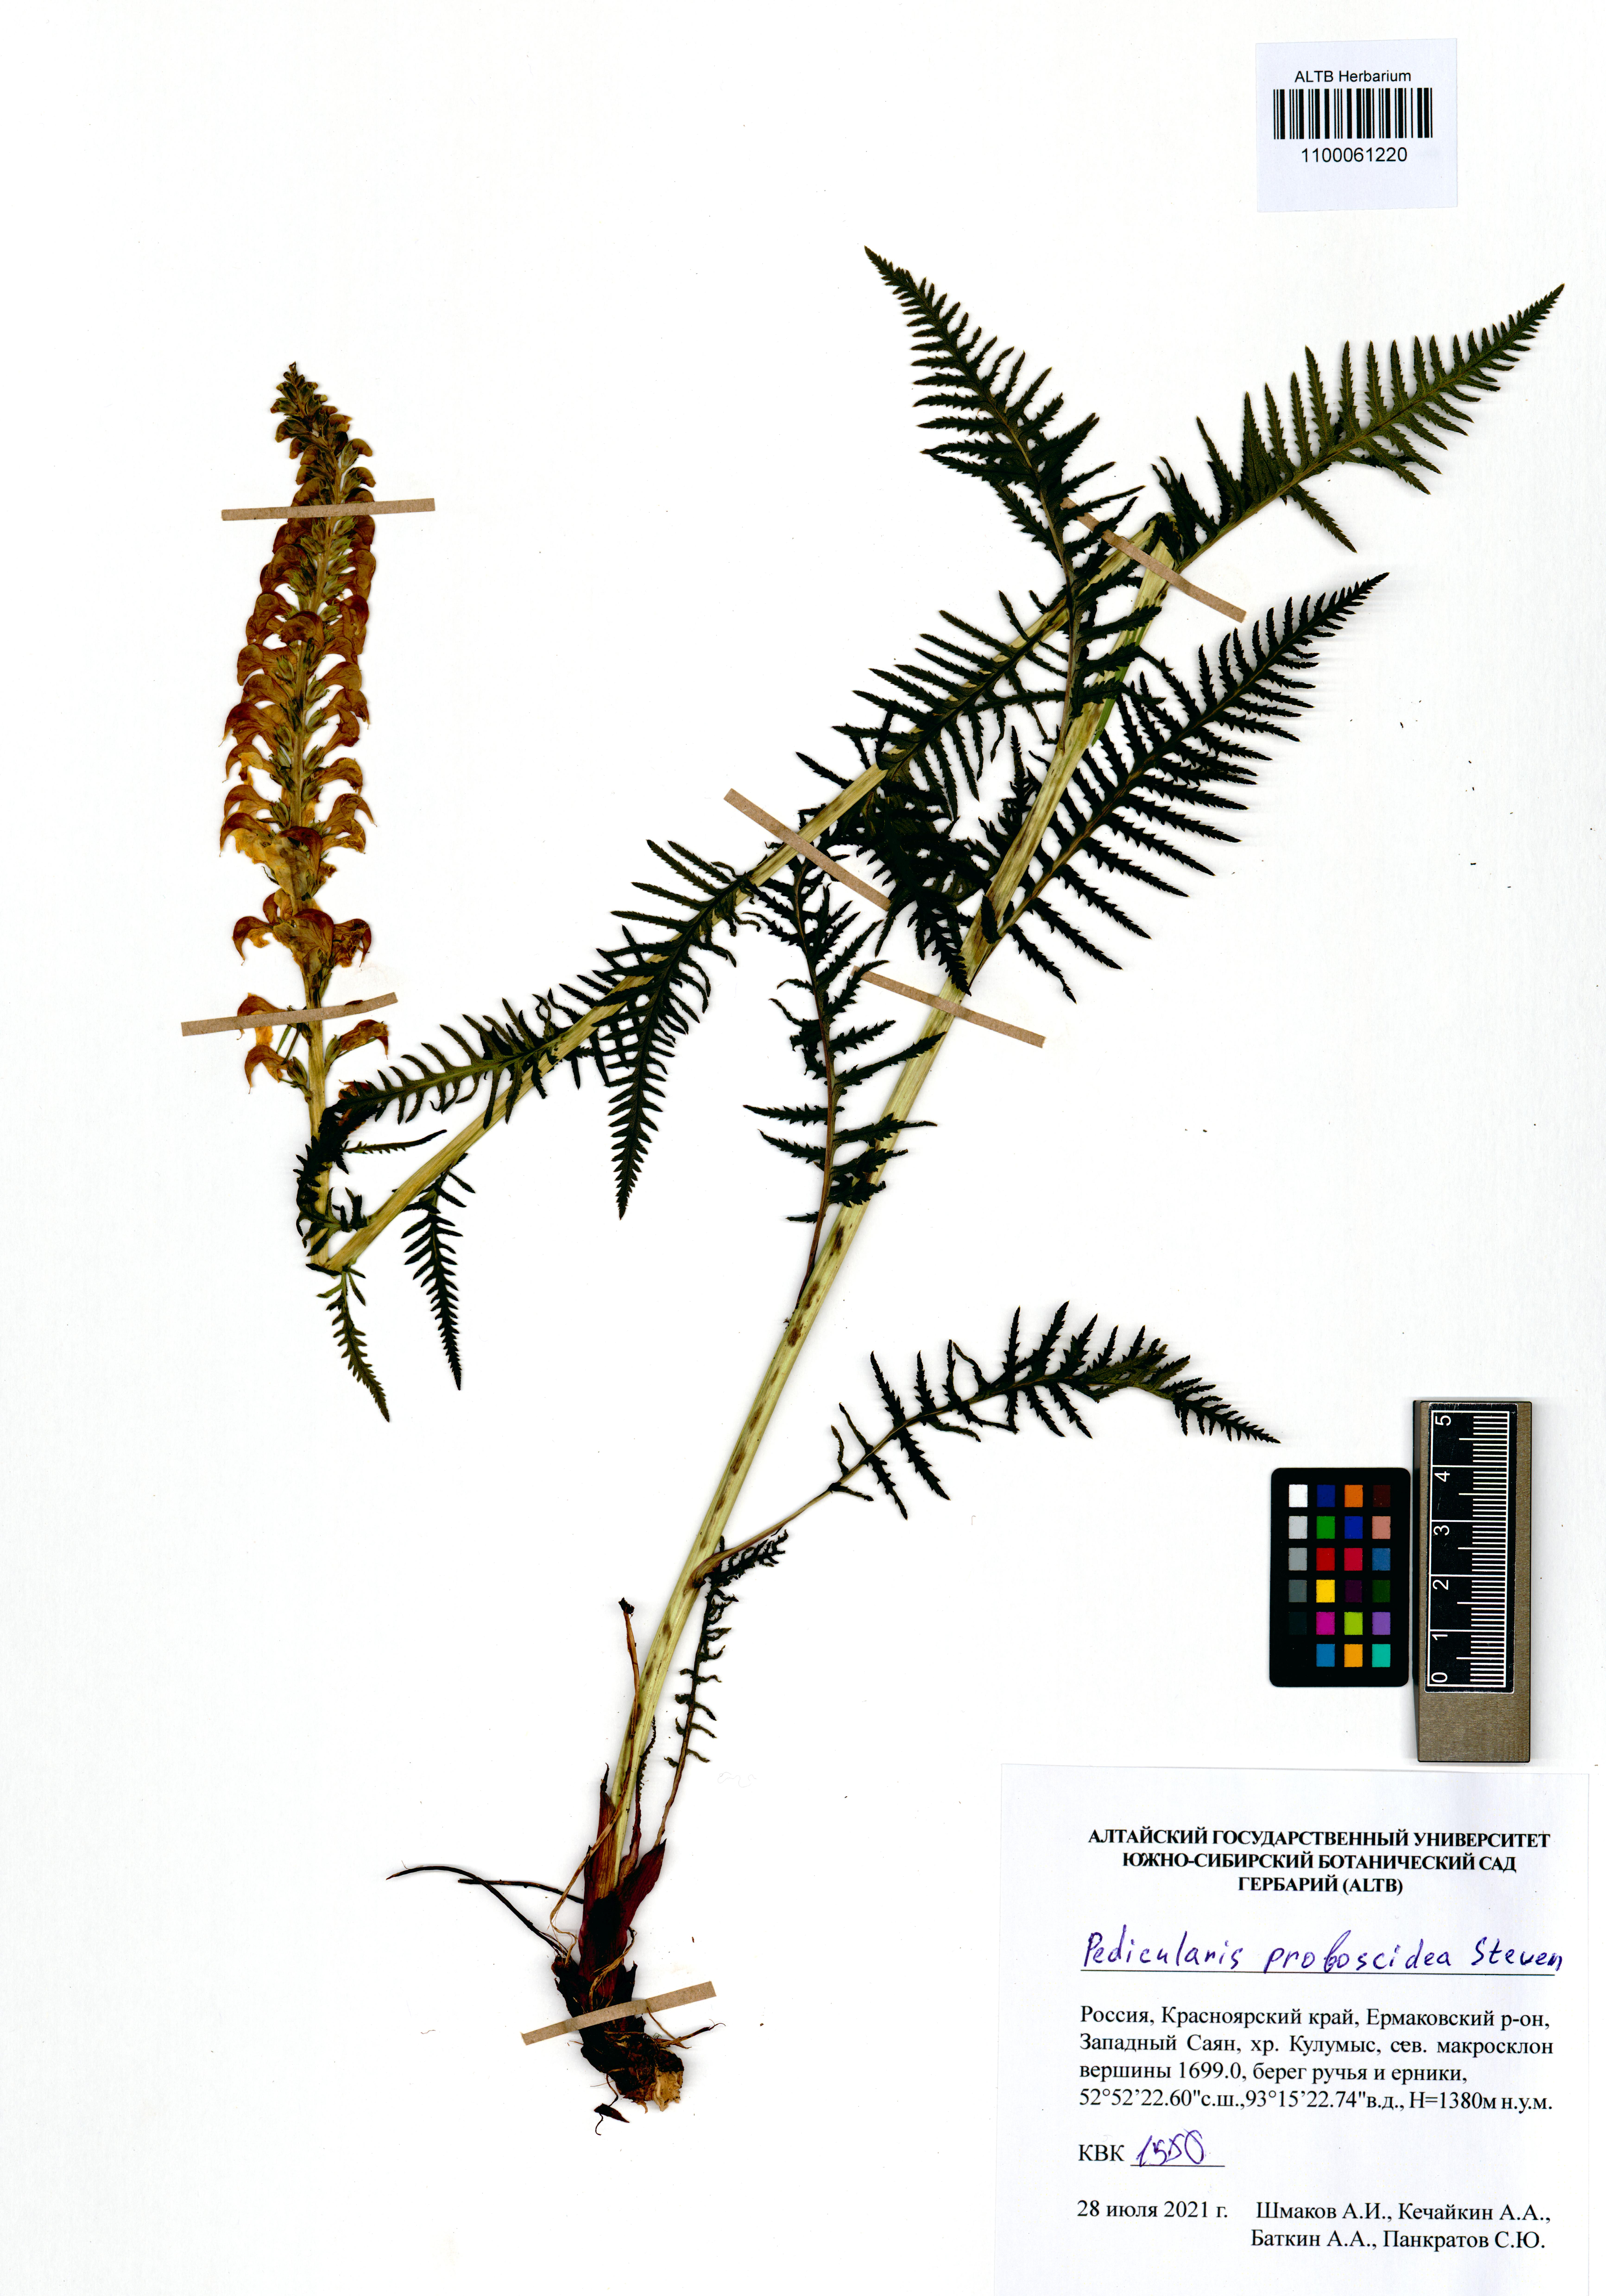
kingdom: Plantae
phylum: Tracheophyta
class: Magnoliopsida
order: Lamiales
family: Orobanchaceae
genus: Pedicularis
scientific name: Pedicularis proboscidea
